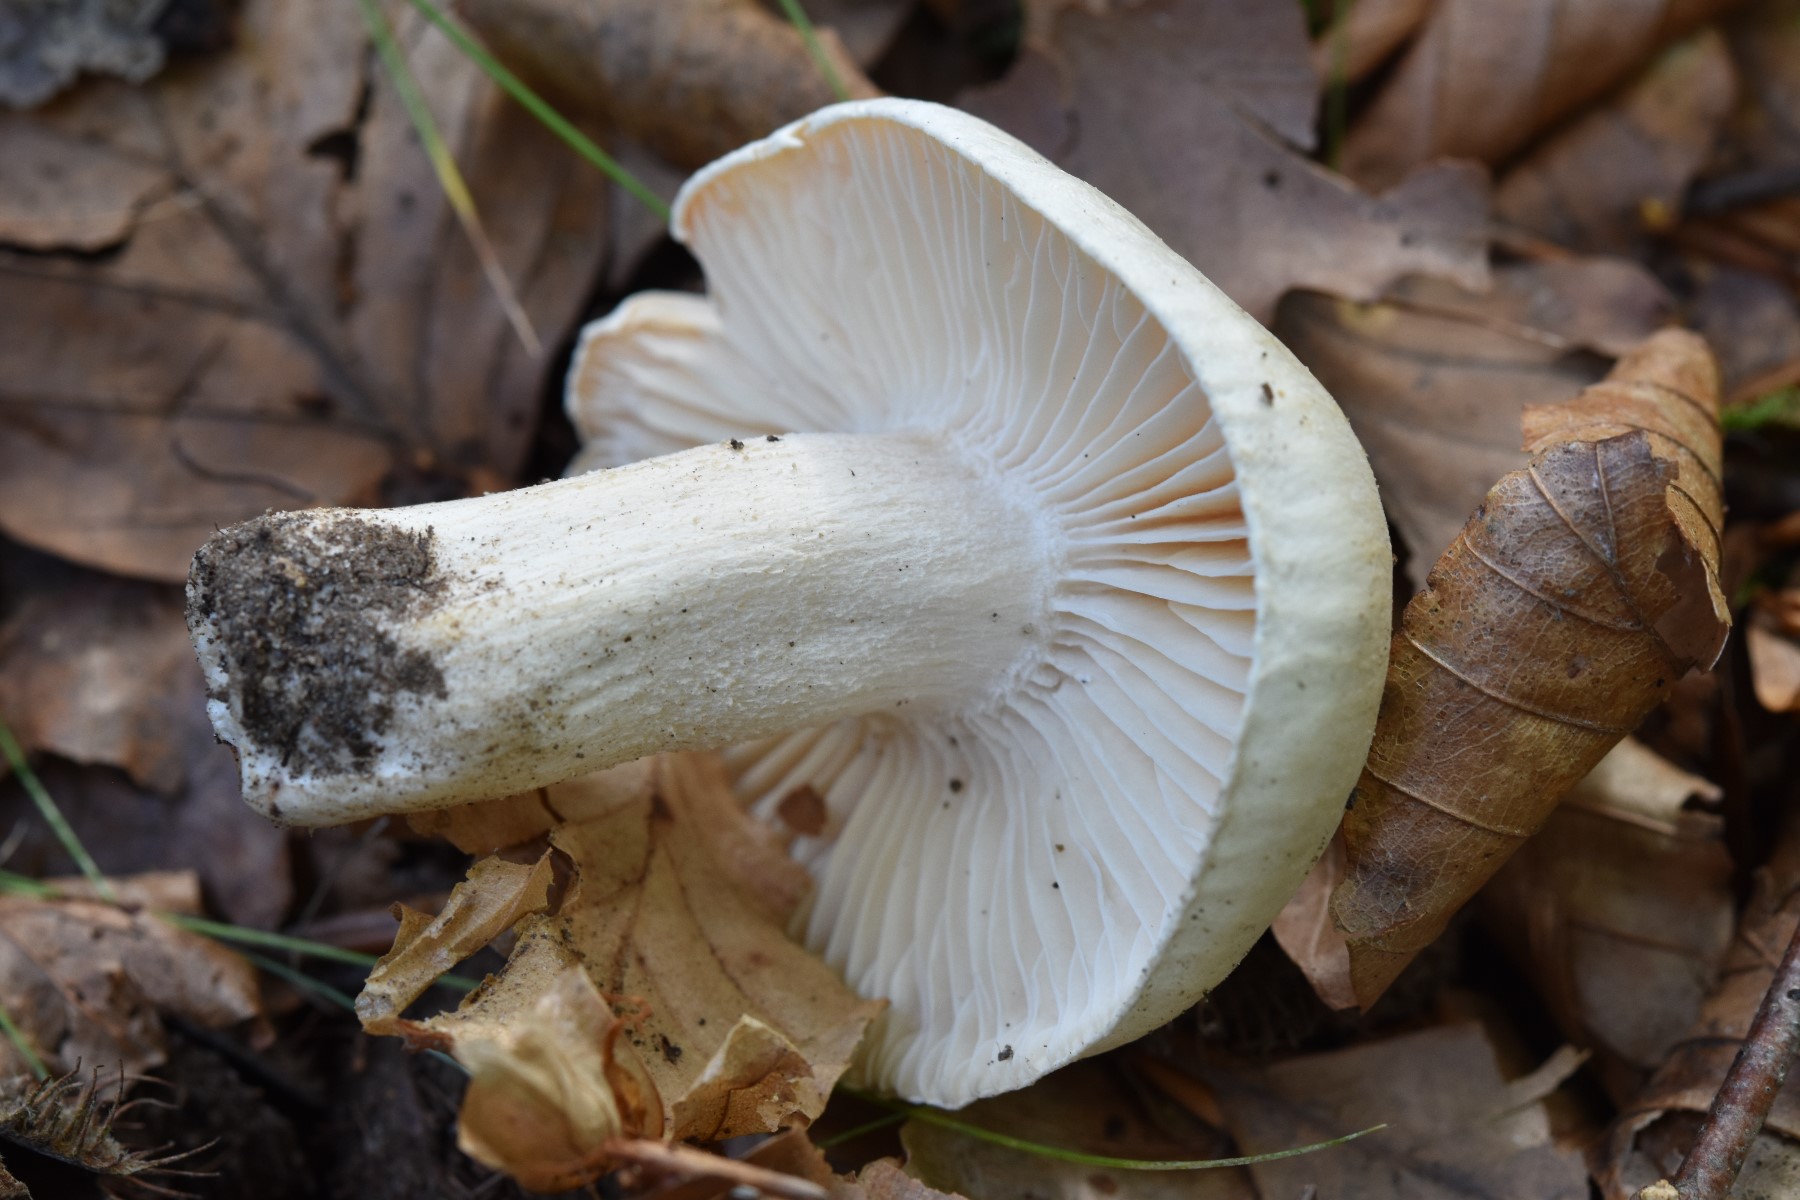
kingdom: Fungi
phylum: Basidiomycota
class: Agaricomycetes
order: Agaricales
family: Hygrophoraceae
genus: Hygrophorus
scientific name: Hygrophorus penarius
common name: spiselig sneglehat
